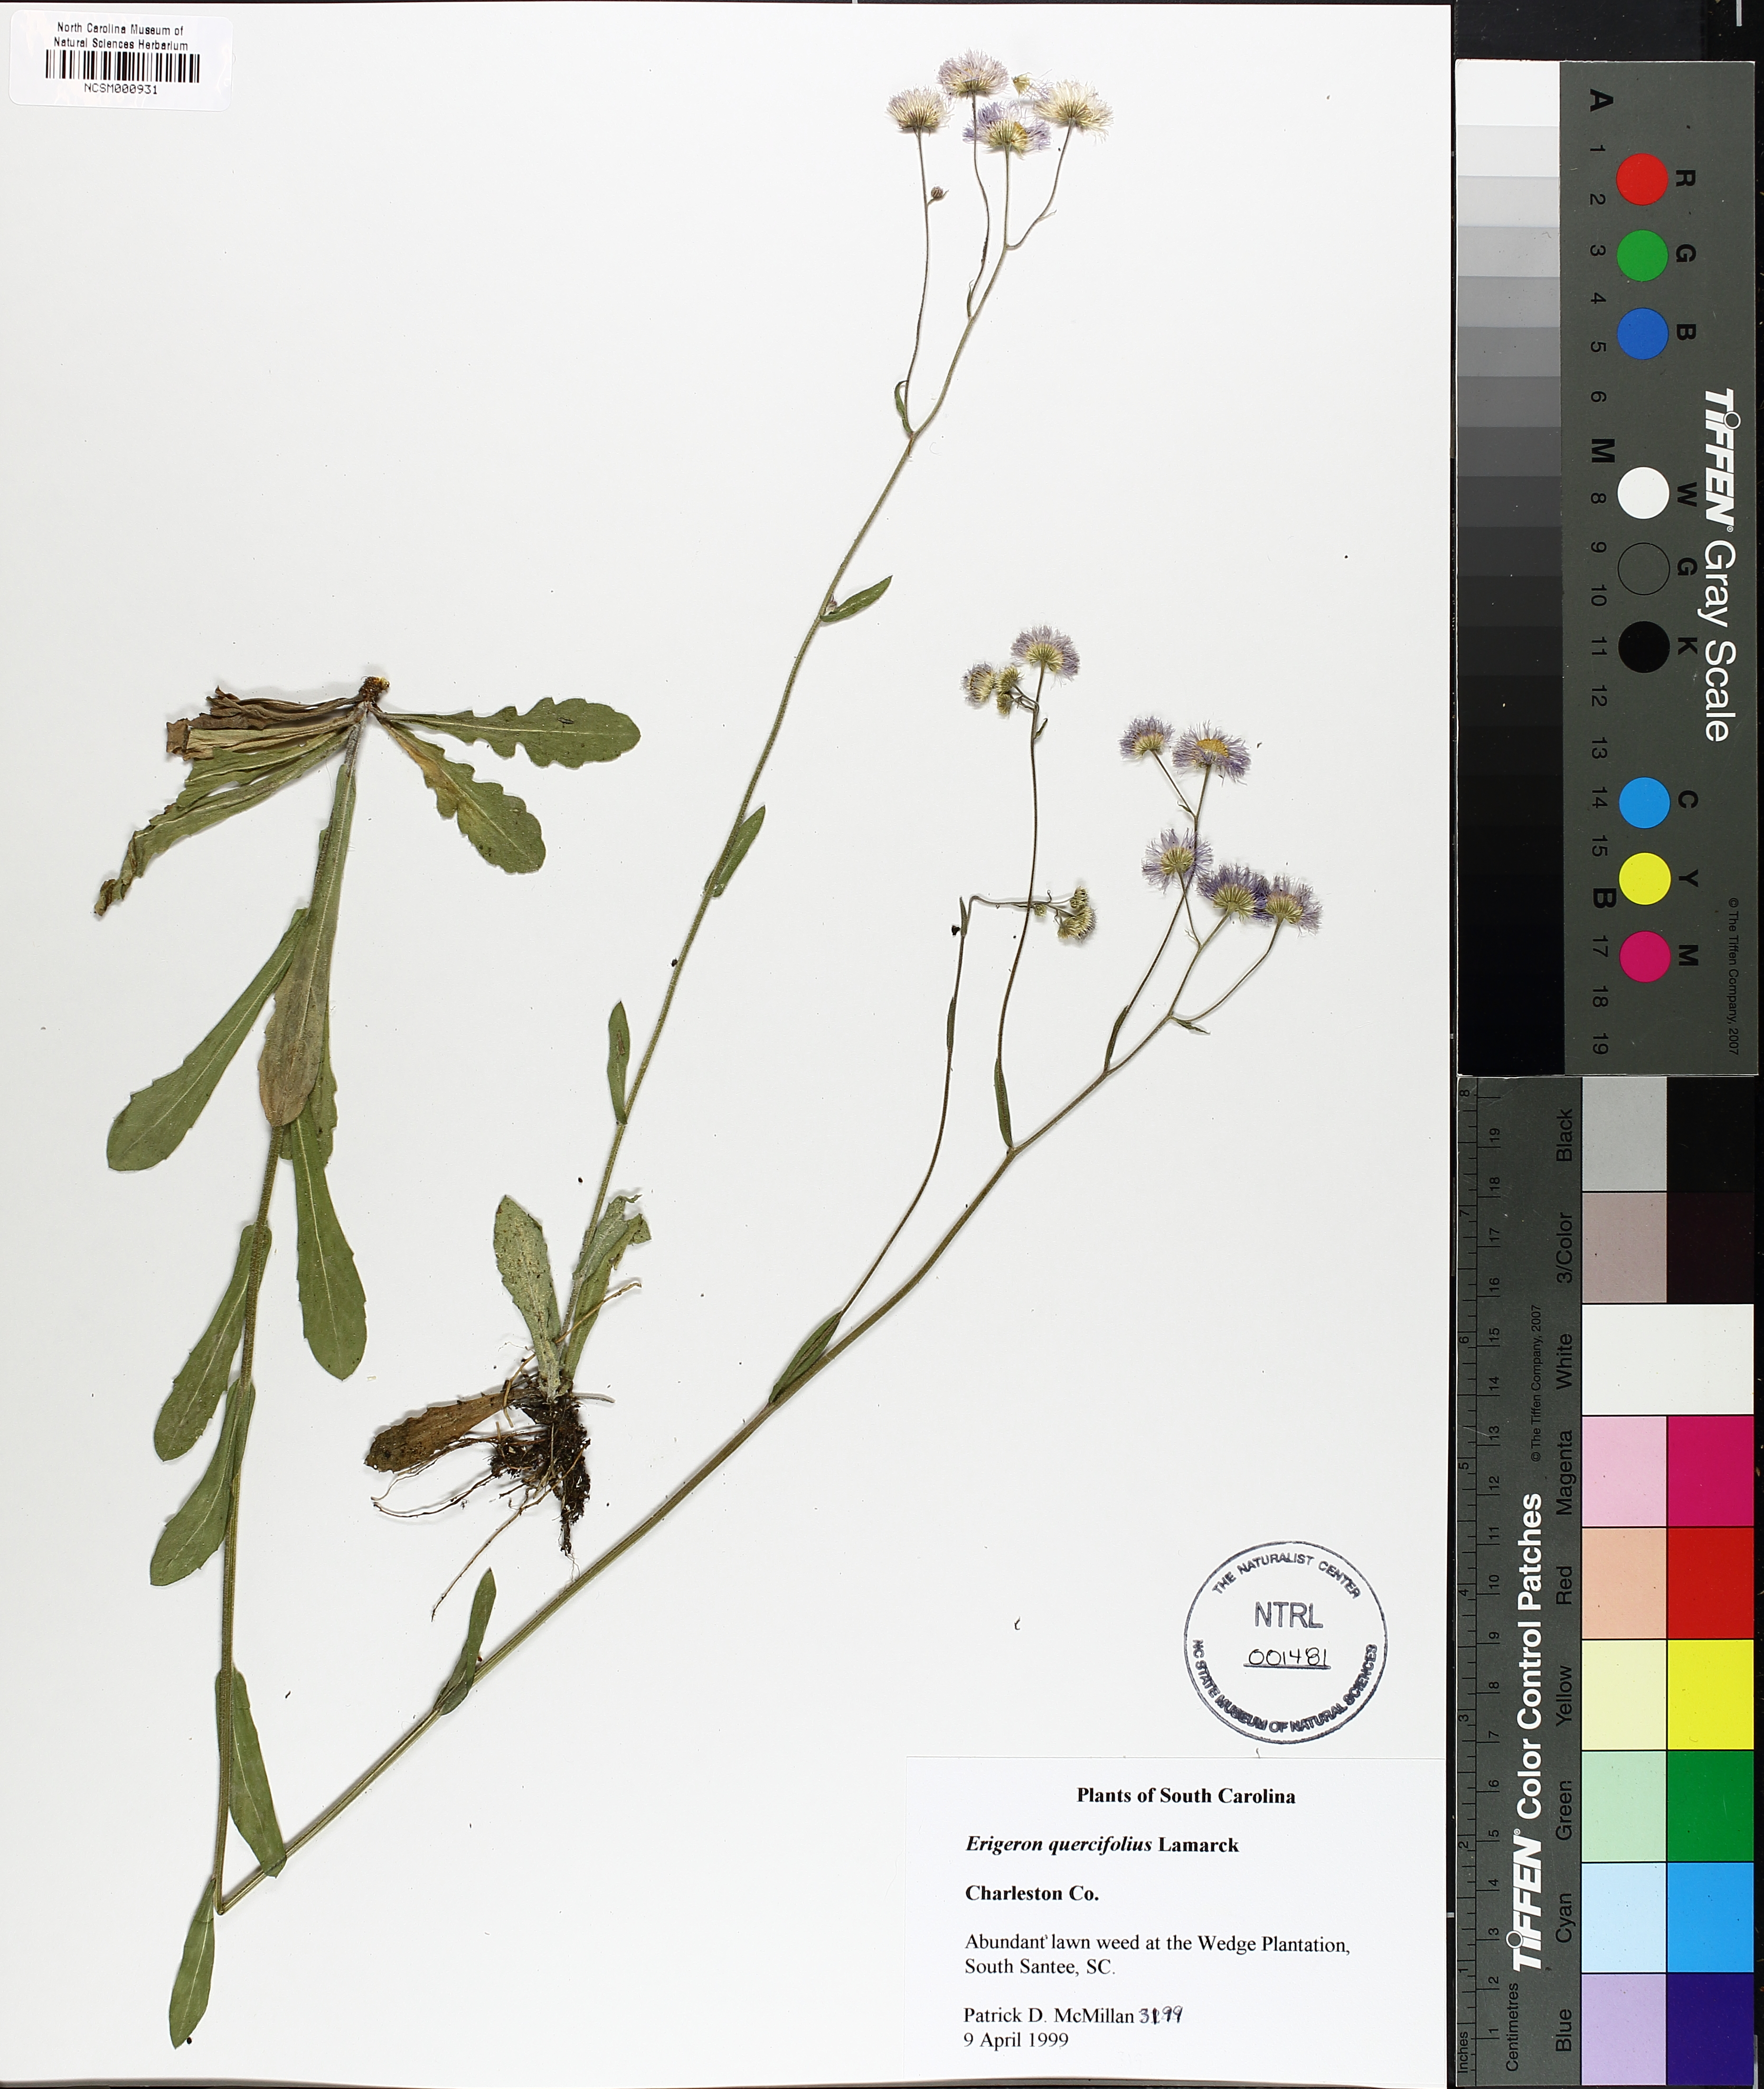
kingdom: Plantae
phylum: Tracheophyta
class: Magnoliopsida
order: Asterales
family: Asteraceae
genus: Erigeron
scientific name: Erigeron quercifolius
